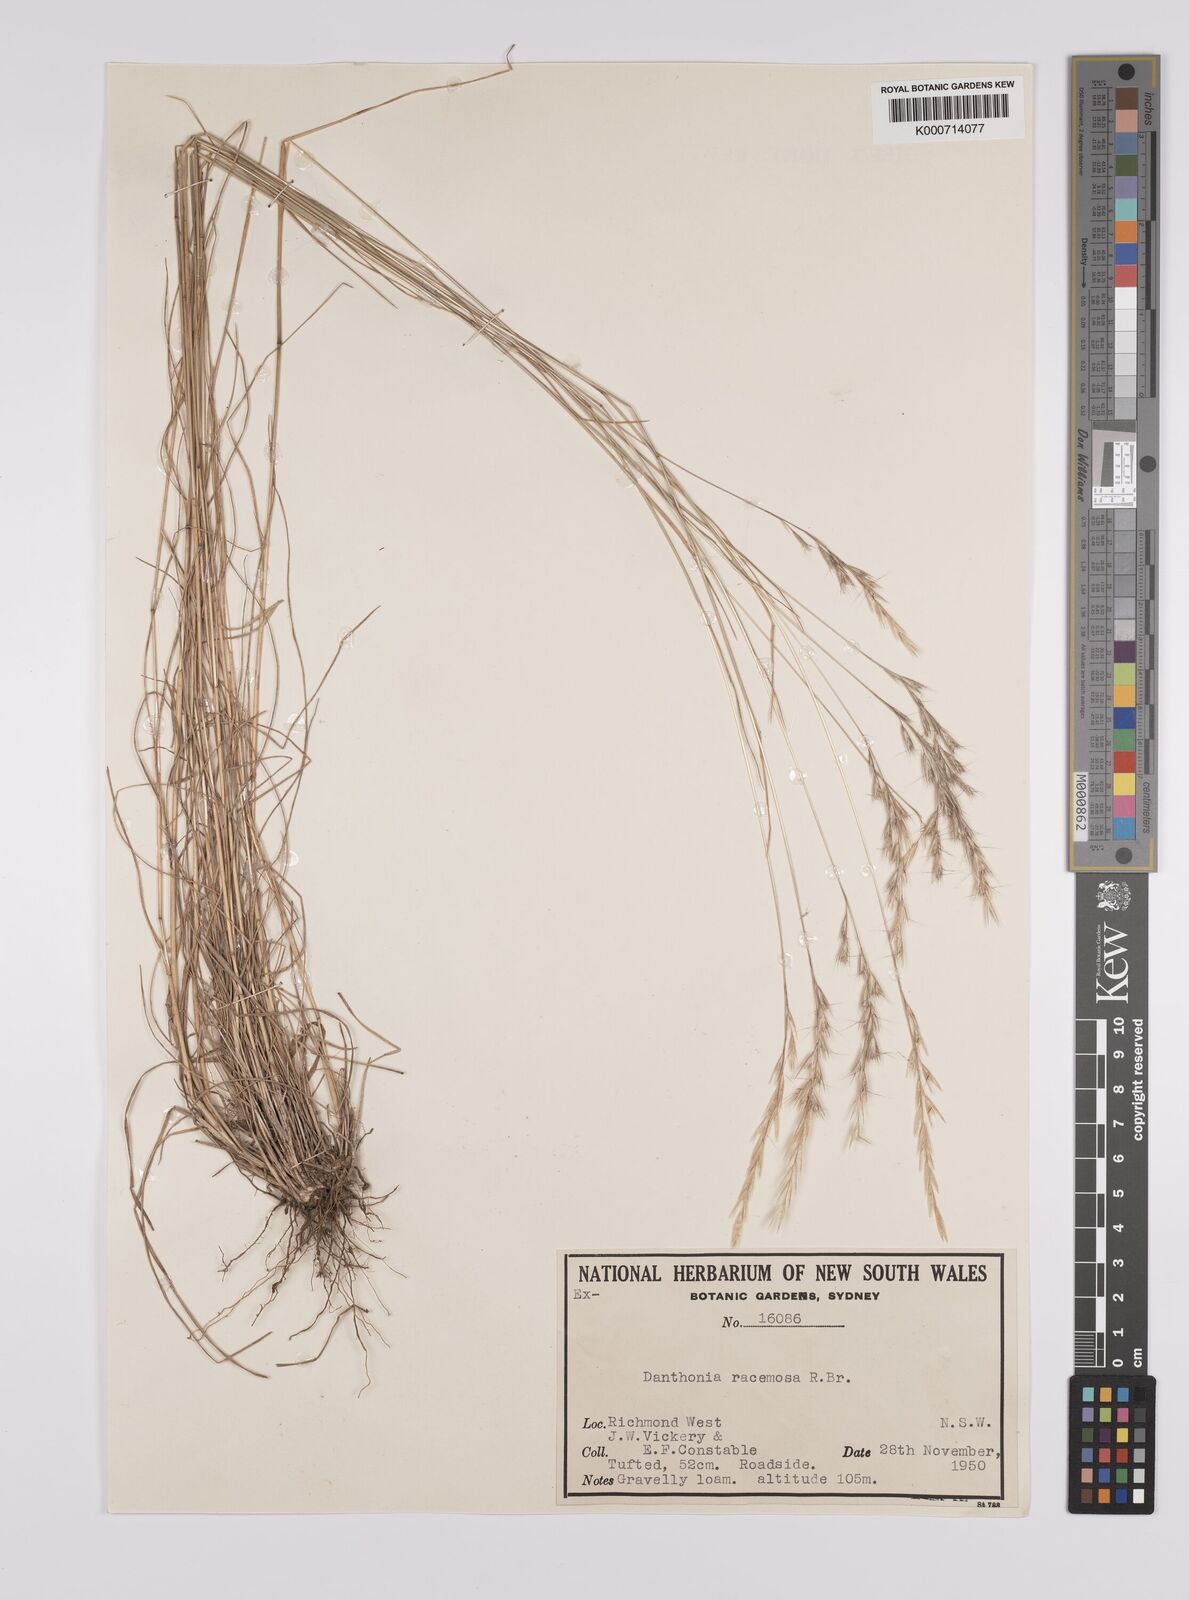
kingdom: Plantae
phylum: Tracheophyta
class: Liliopsida
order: Poales
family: Poaceae
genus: Rytidosperma
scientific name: Rytidosperma racemosum
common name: Wallaby-grass
